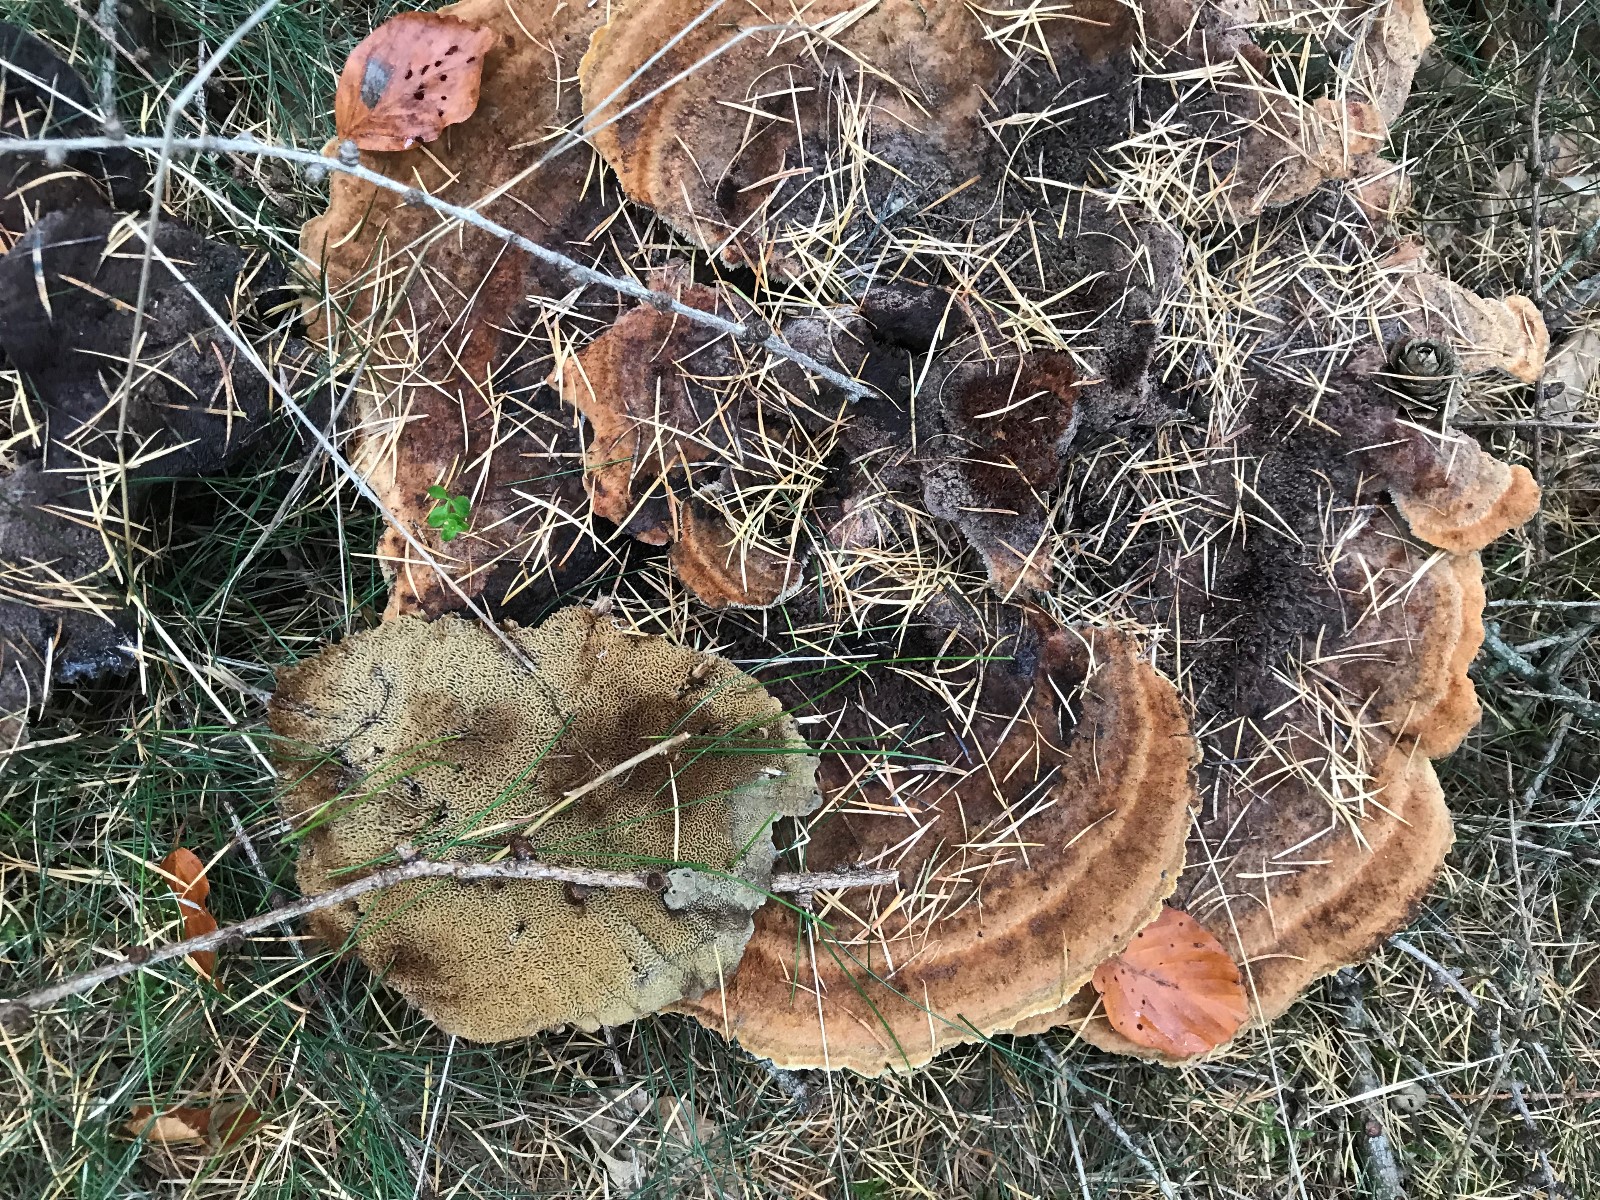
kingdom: Fungi
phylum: Basidiomycota
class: Agaricomycetes
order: Polyporales
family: Laetiporaceae
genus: Phaeolus
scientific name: Phaeolus schweinitzii
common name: brunporesvamp
